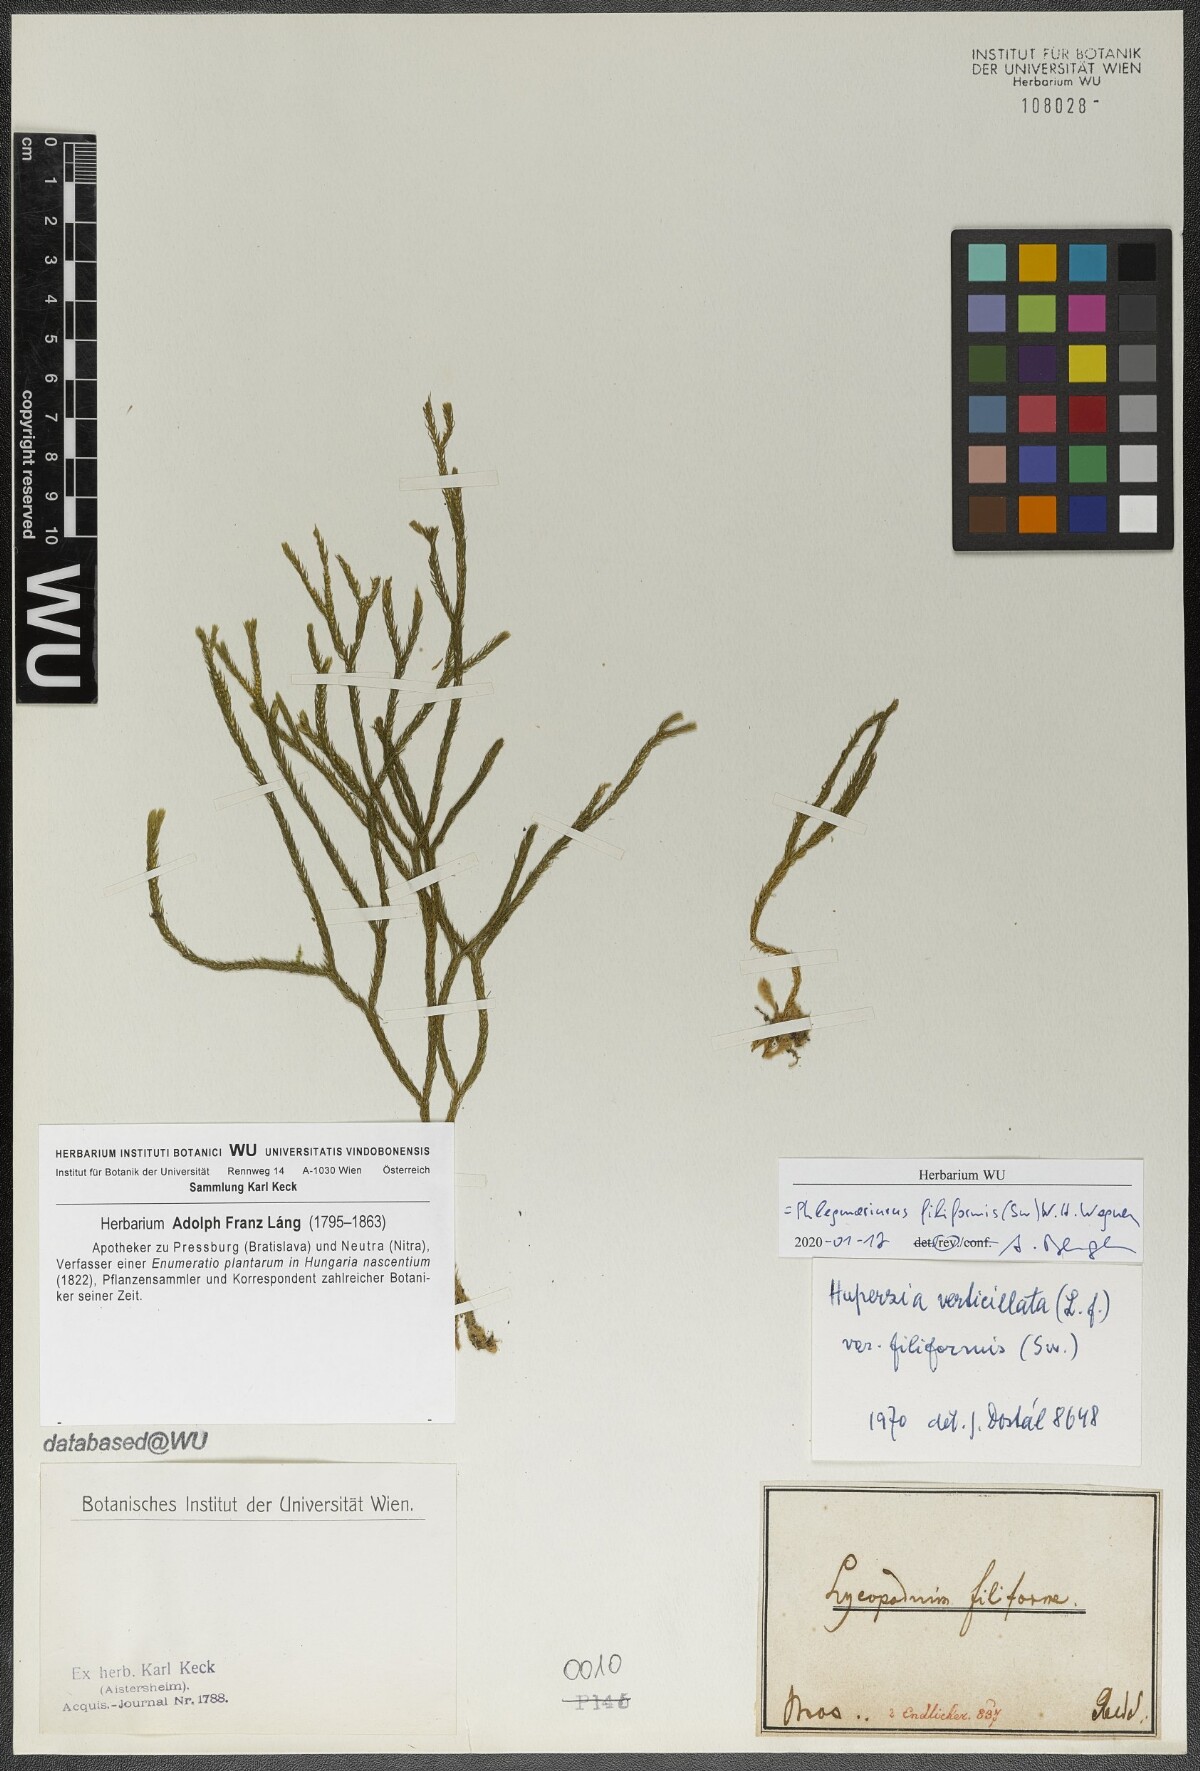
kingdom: Plantae
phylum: Tracheophyta
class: Lycopodiopsida
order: Lycopodiales
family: Lycopodiaceae
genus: Phlegmariurus
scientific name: Phlegmariurus filiformis
